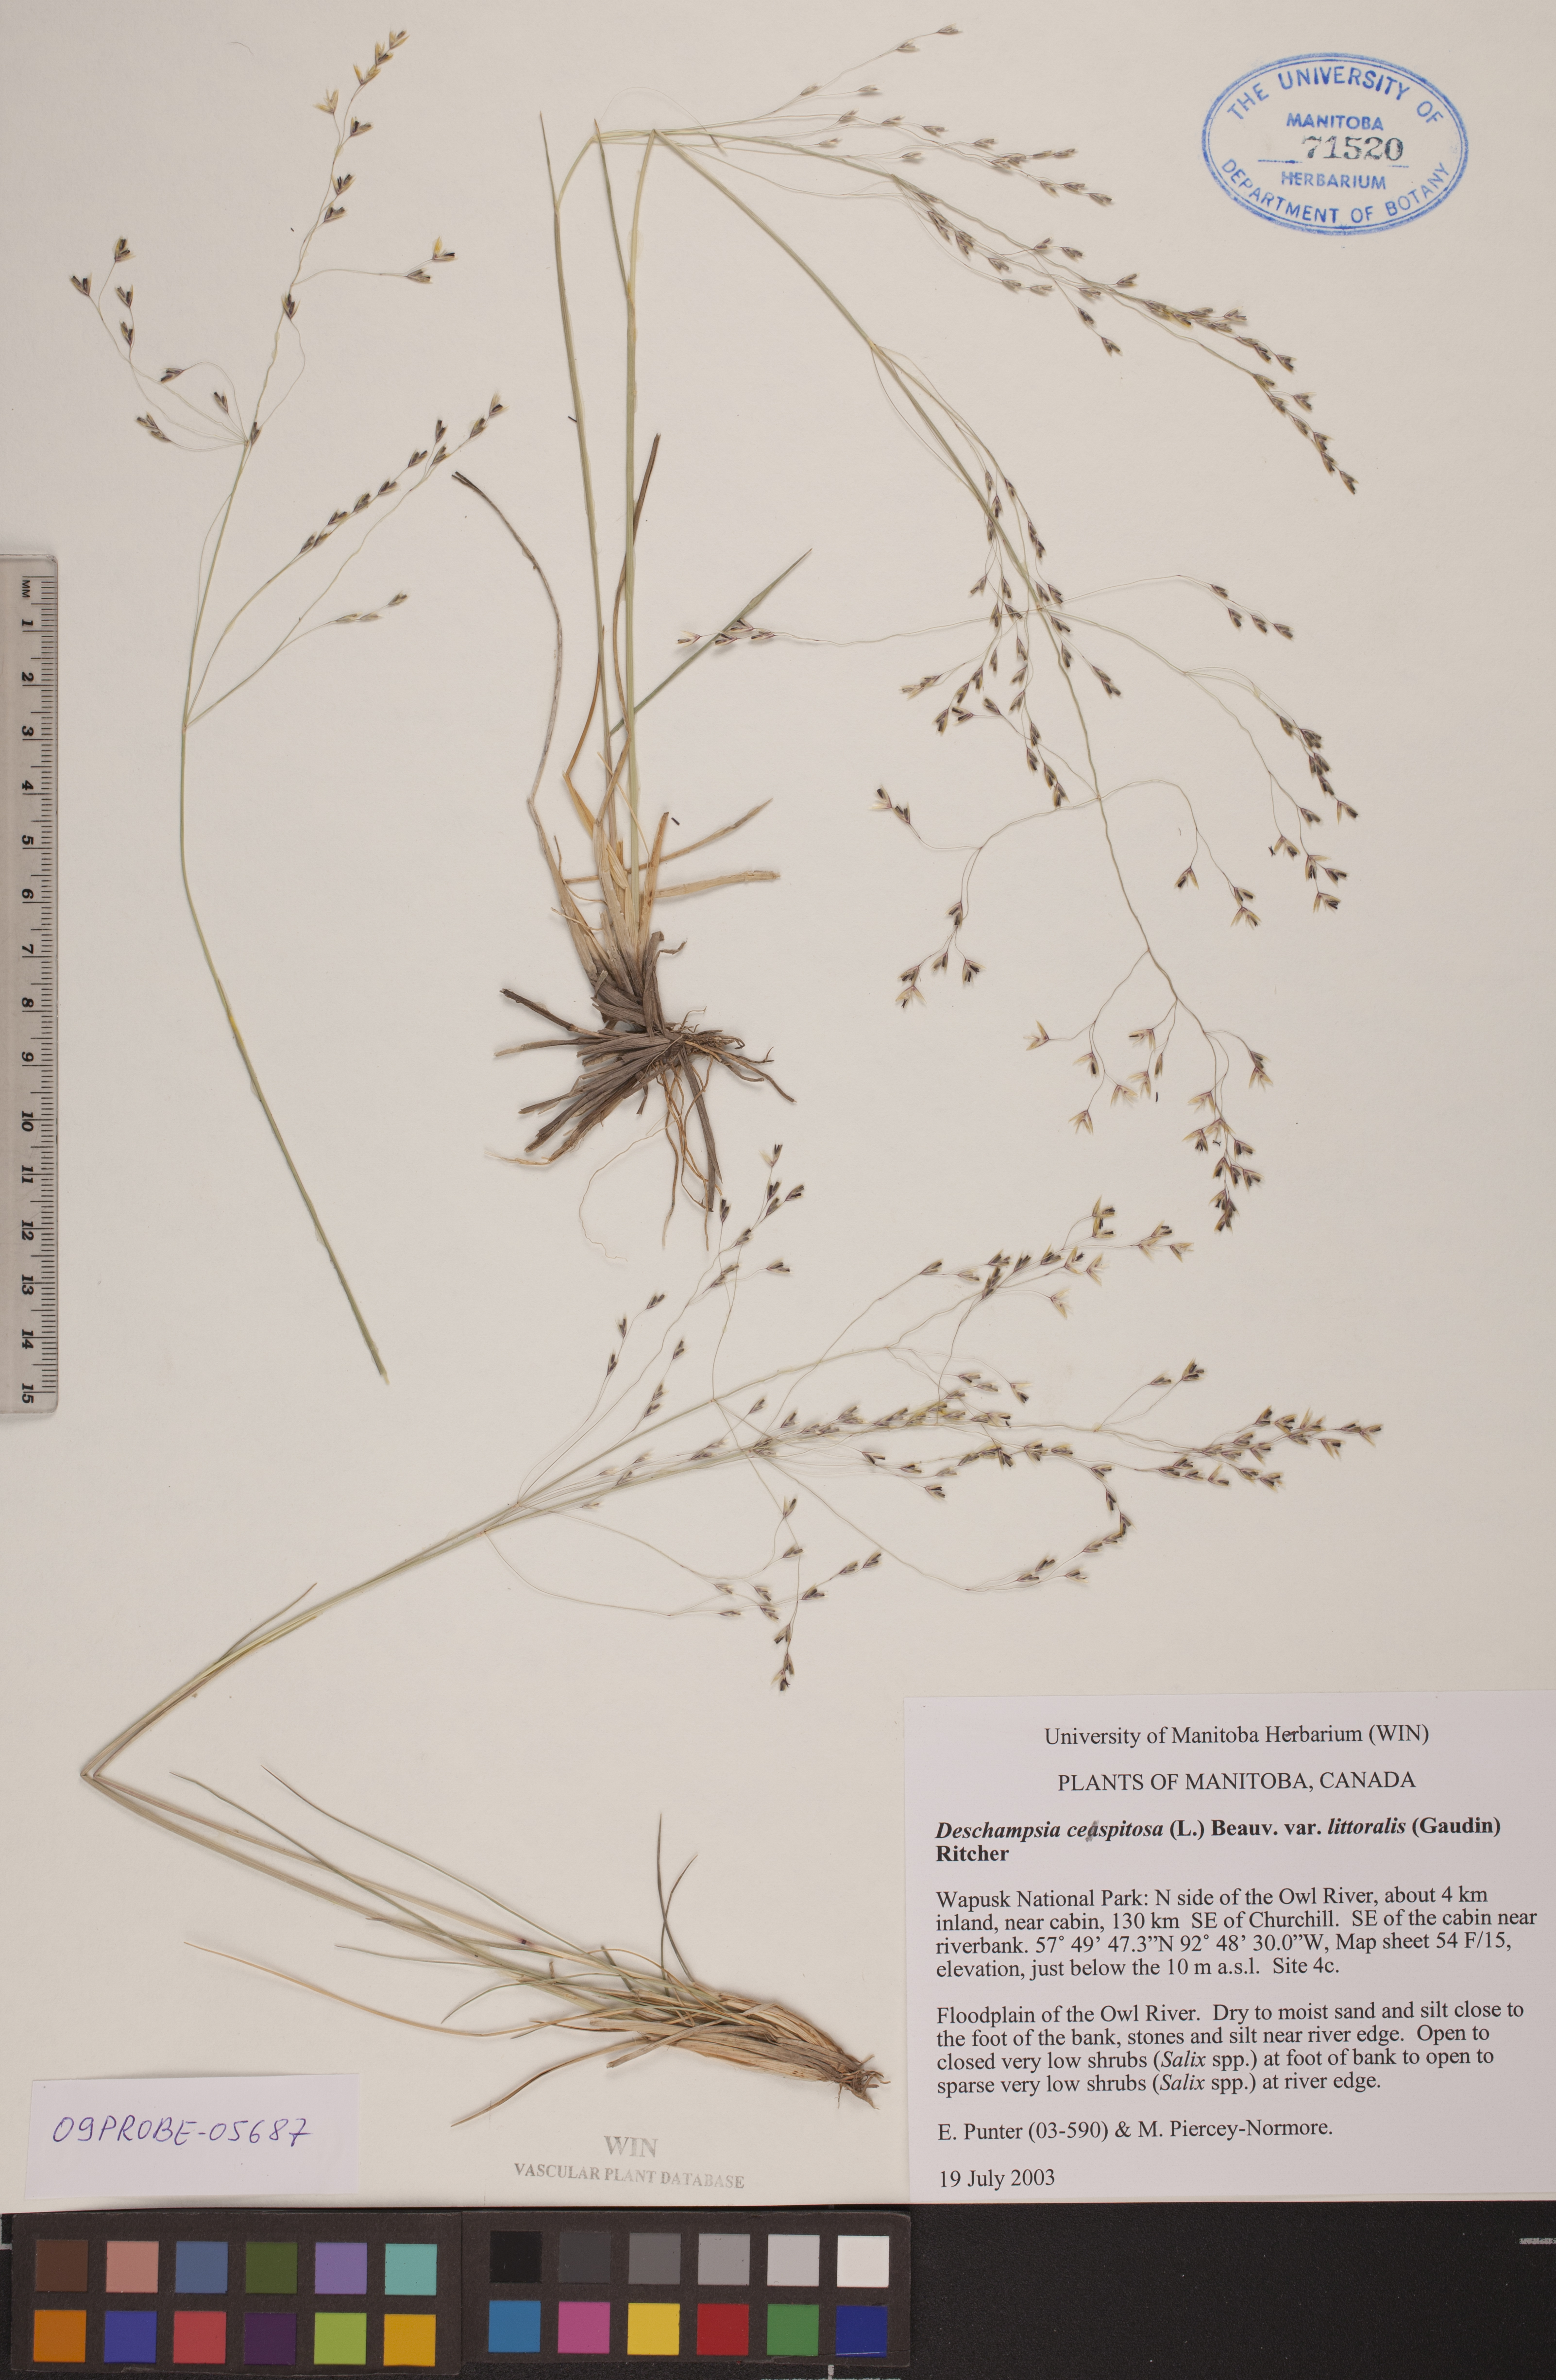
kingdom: Plantae
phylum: Tracheophyta
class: Liliopsida
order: Poales
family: Poaceae
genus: Deschampsia
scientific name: Deschampsia cespitosa
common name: Tufted hair-grass
